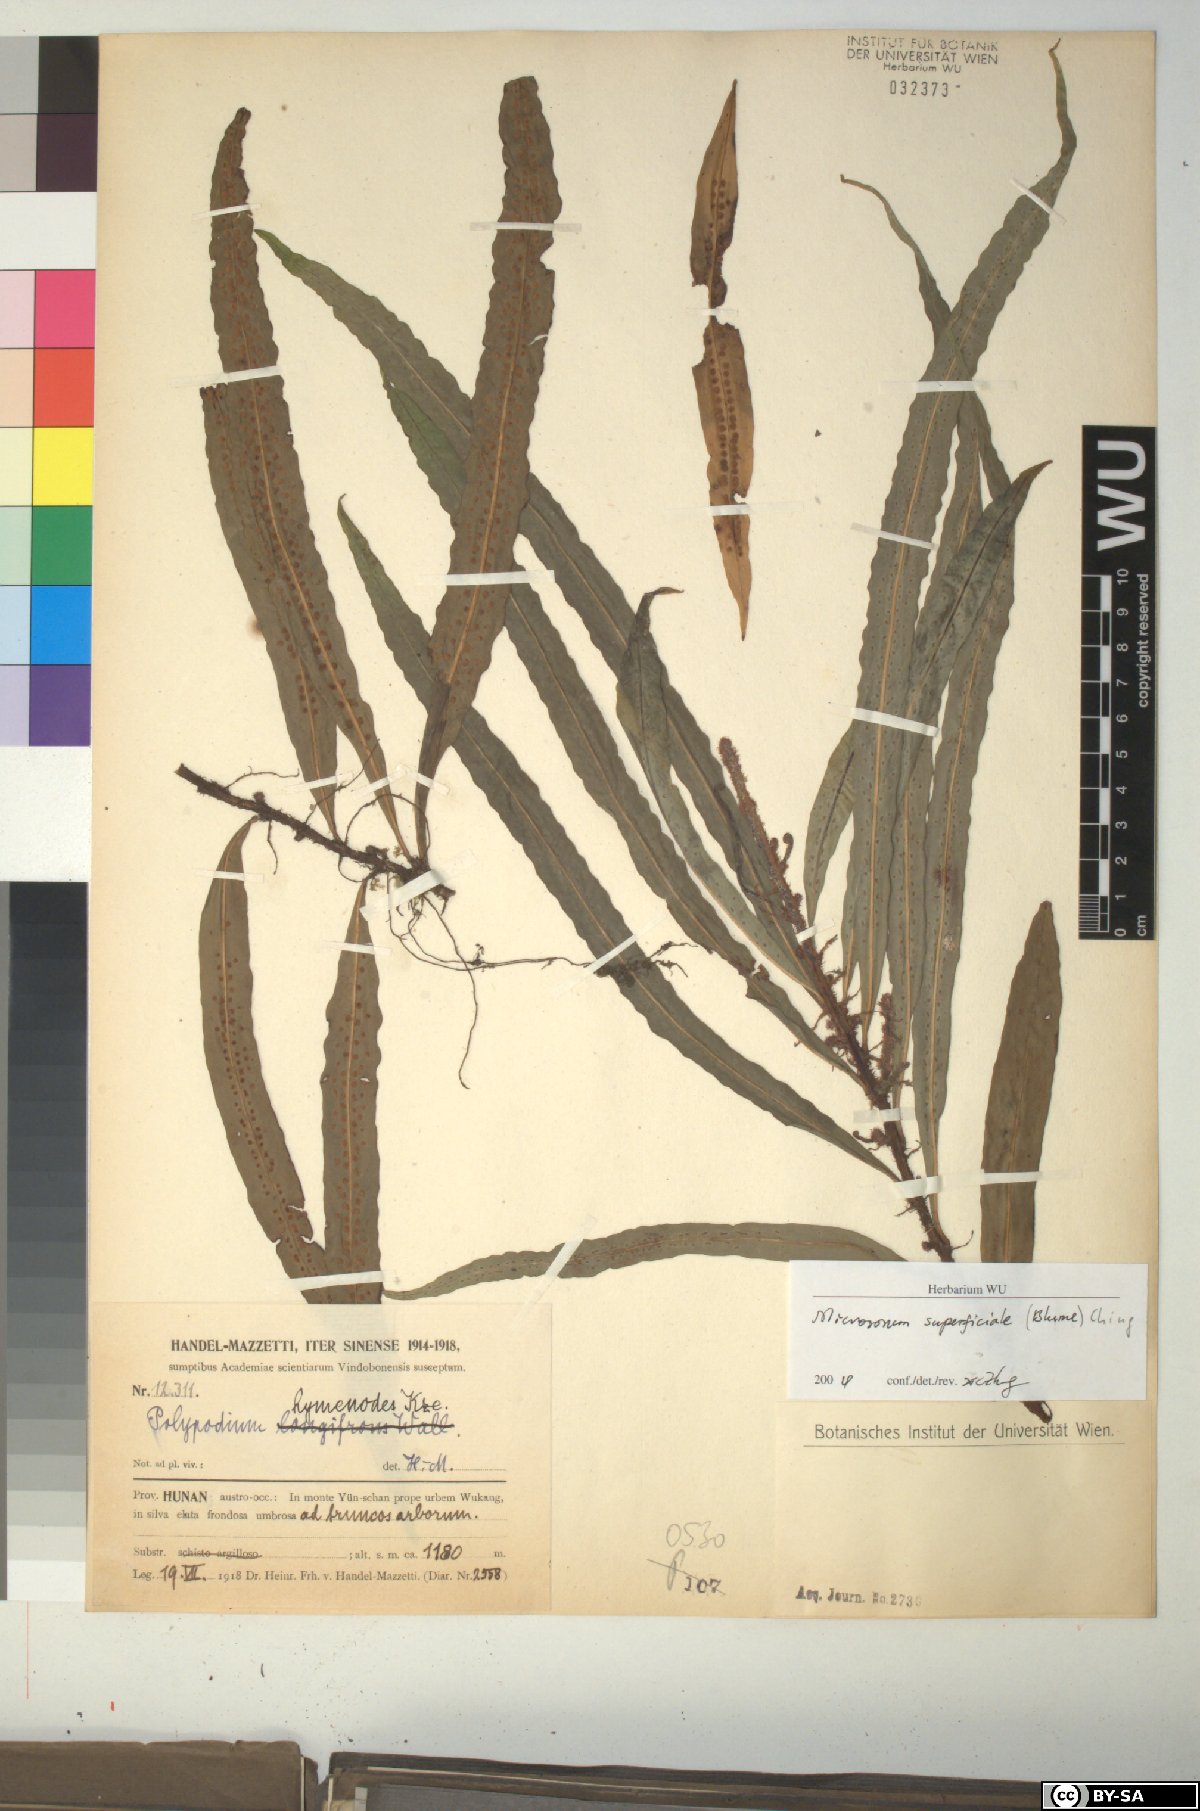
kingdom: Plantae
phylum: Tracheophyta
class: Polypodiopsida
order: Polypodiales
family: Polypodiaceae
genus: Lepisorus
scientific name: Lepisorus superficialis
